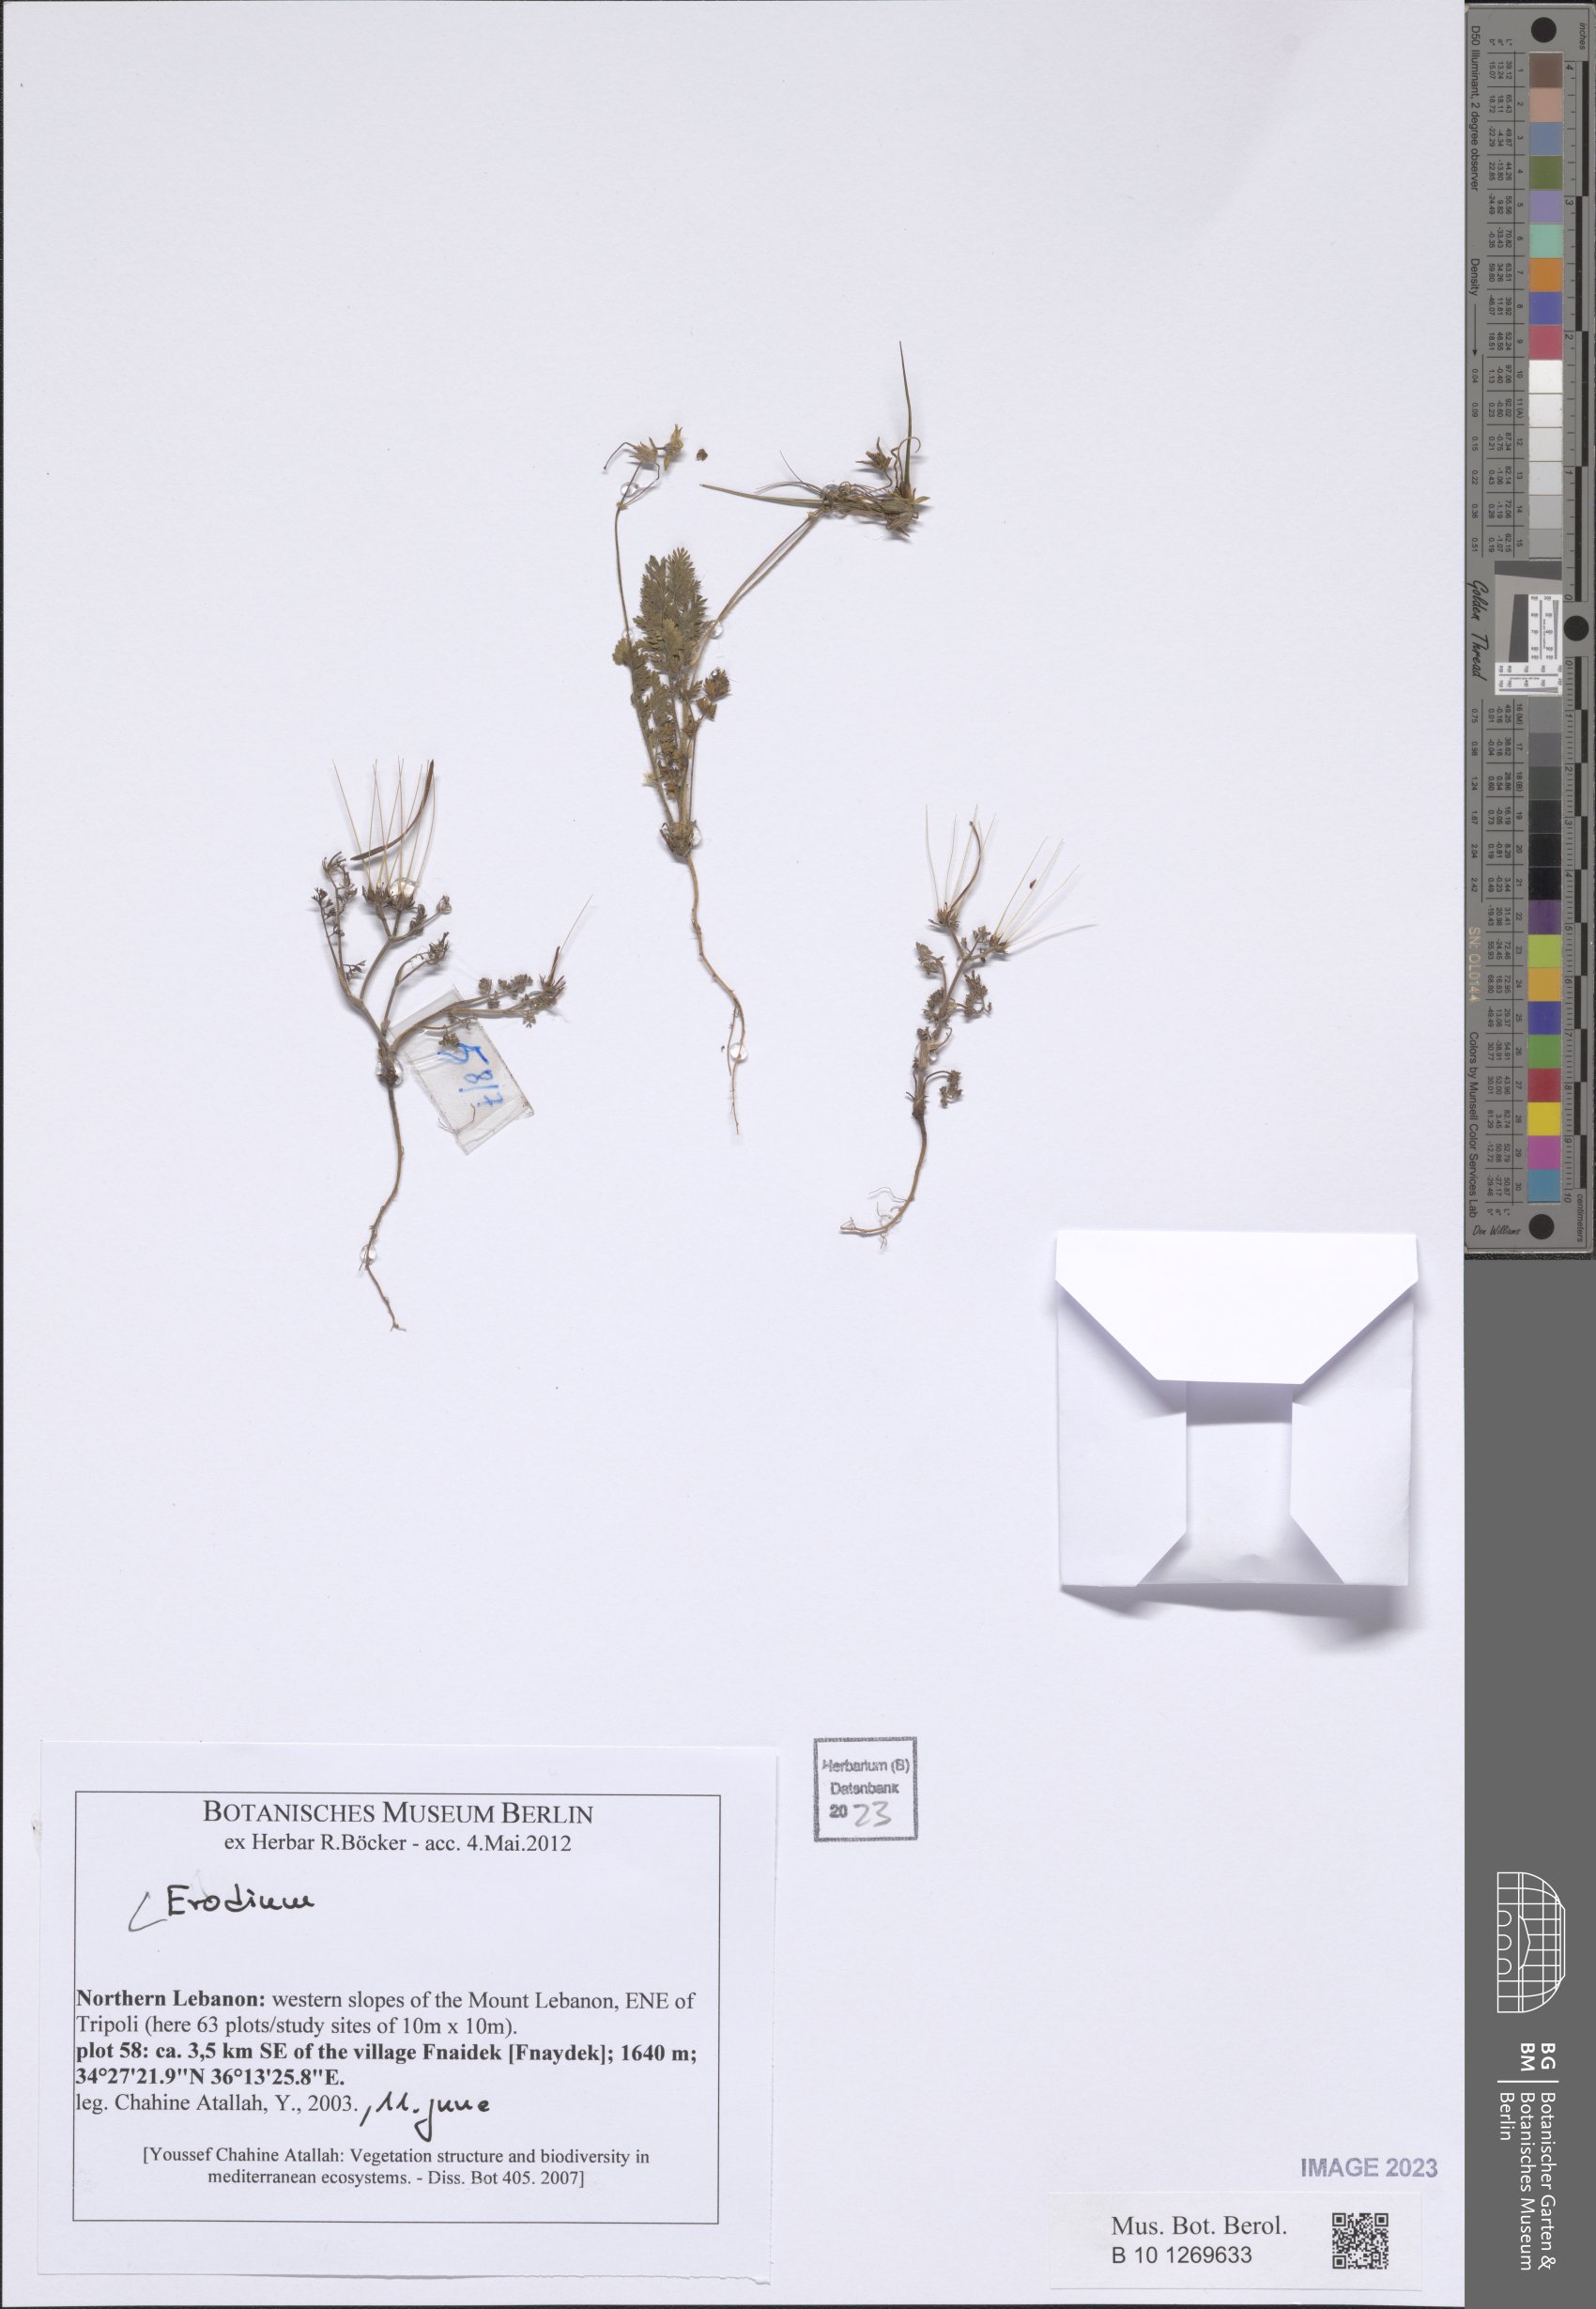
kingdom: Plantae
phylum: Tracheophyta
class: Magnoliopsida
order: Geraniales
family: Geraniaceae
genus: Erodium
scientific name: Erodium
